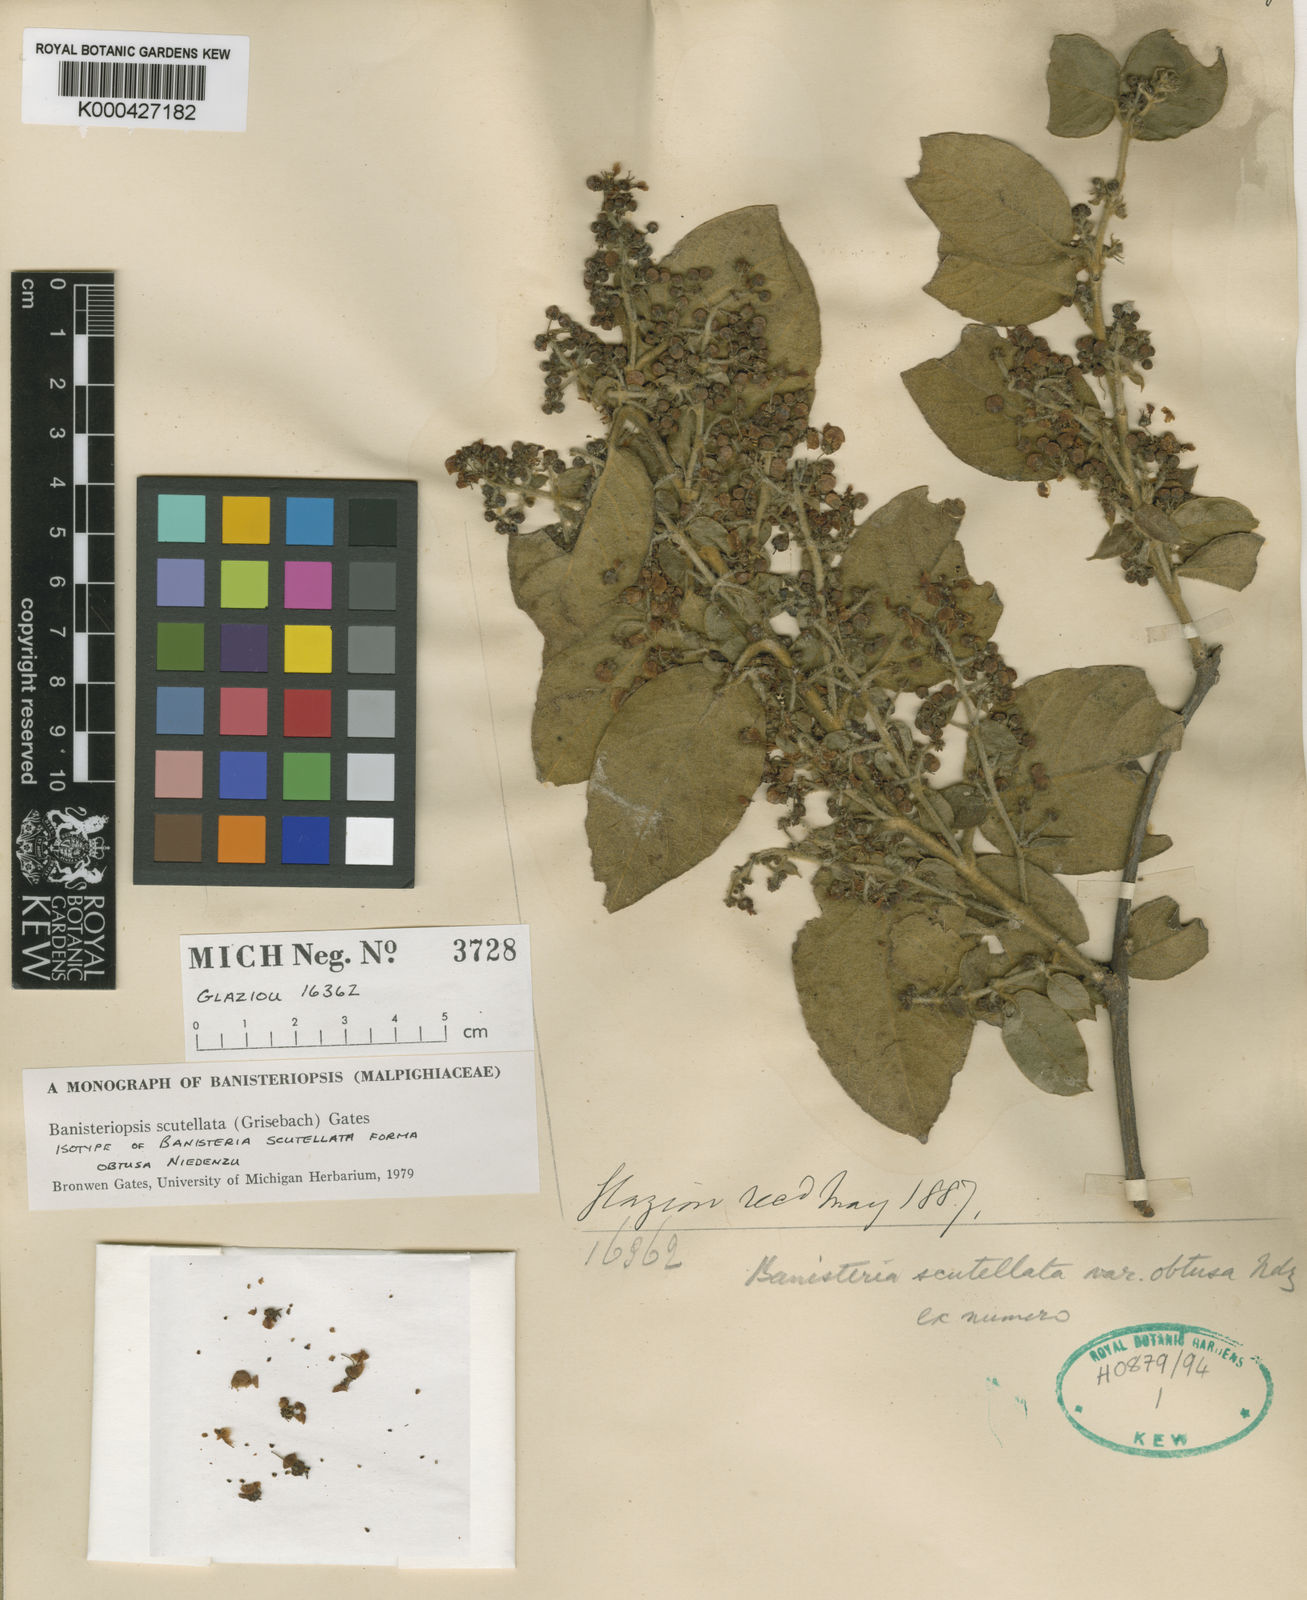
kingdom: Plantae
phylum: Tracheophyta
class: Magnoliopsida
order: Malpighiales
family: Malpighiaceae
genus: Banisteriopsis
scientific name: Banisteriopsis scutellata
